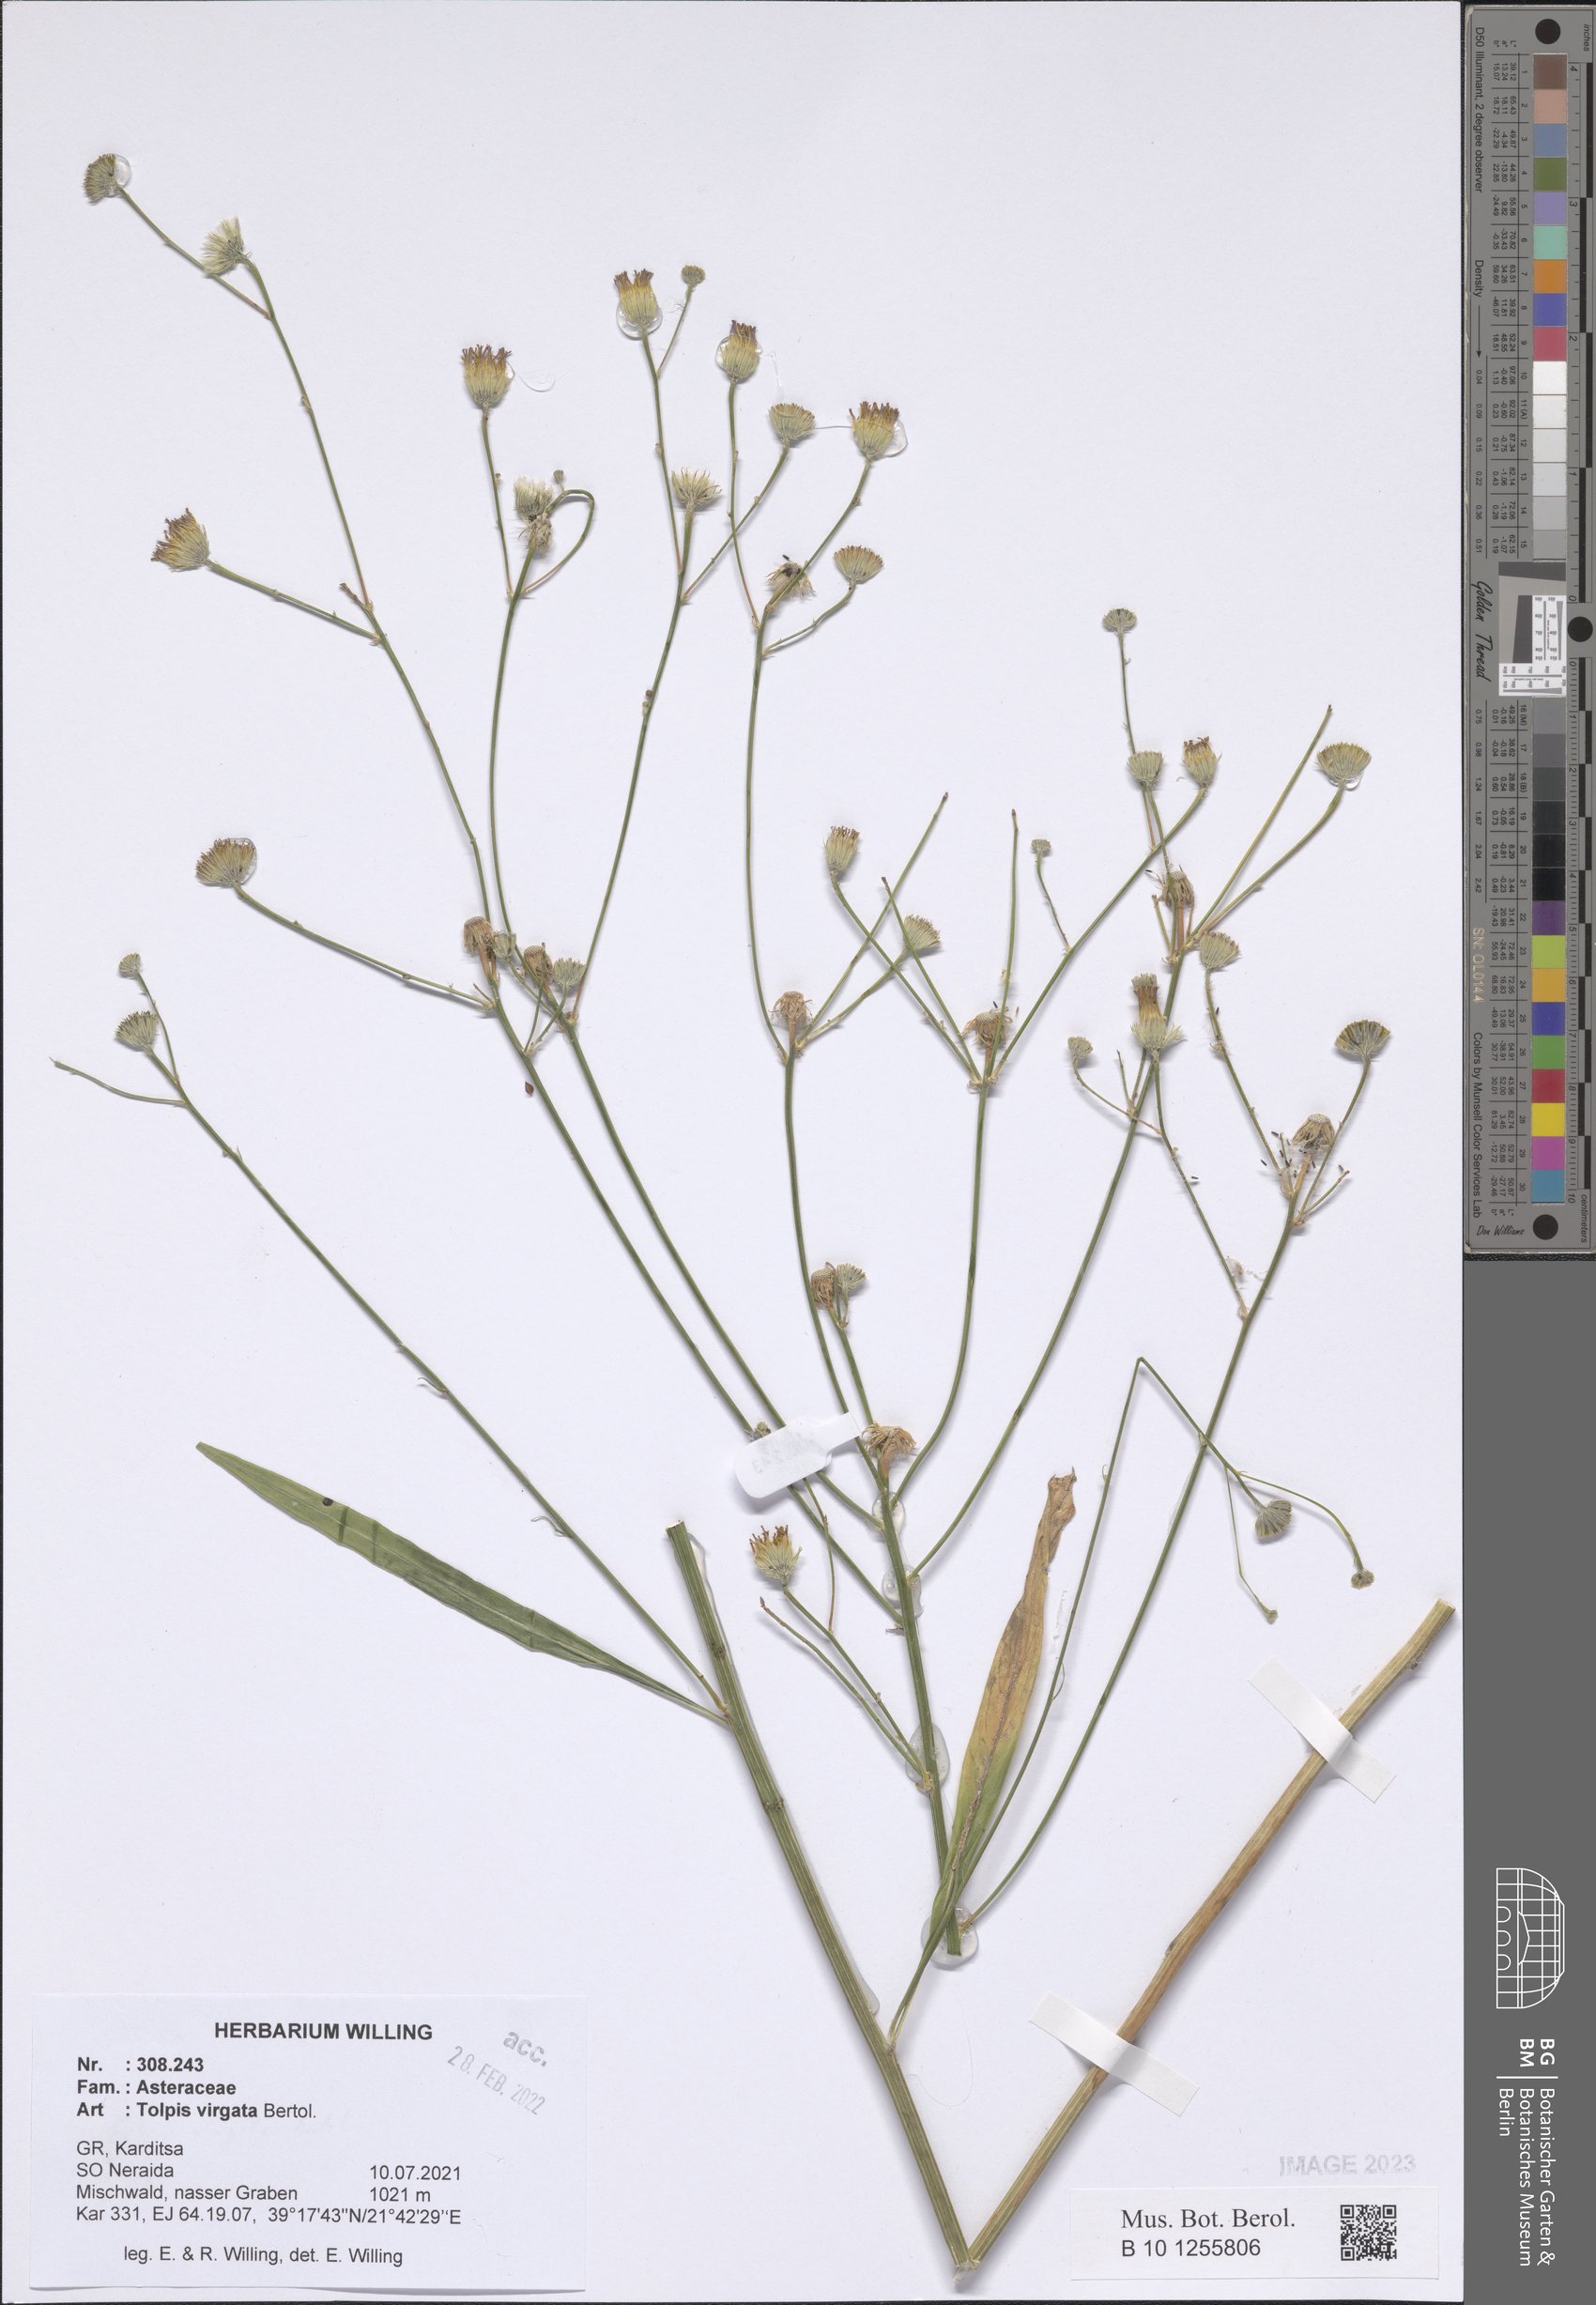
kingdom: Plantae
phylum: Tracheophyta
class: Magnoliopsida
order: Asterales
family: Asteraceae
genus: Tolpis
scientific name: Tolpis virgata
